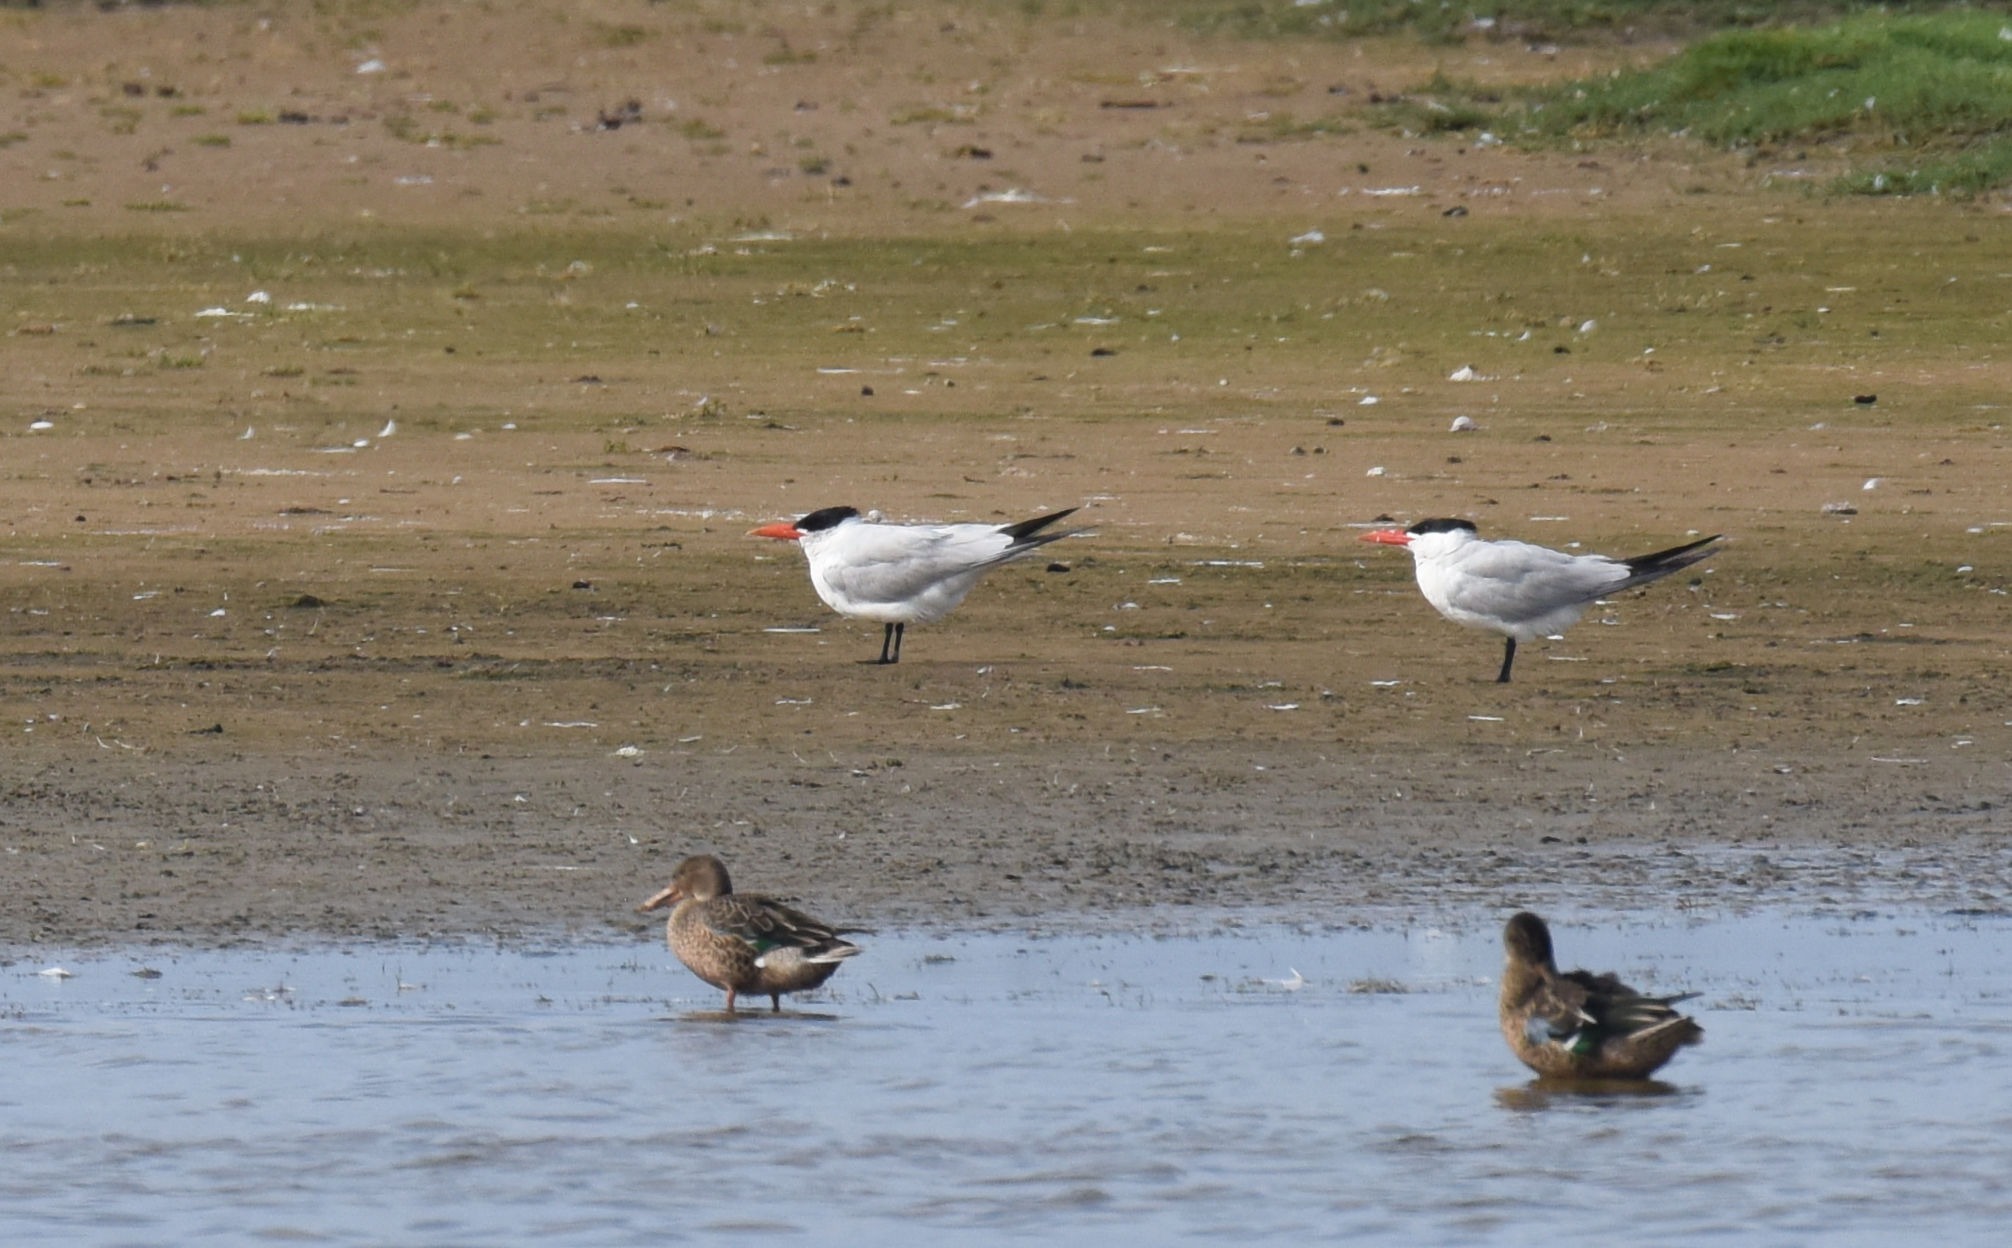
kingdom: Animalia
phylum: Chordata
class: Aves
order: Charadriiformes
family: Laridae
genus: Hydroprogne
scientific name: Hydroprogne caspia
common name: Rovterne
